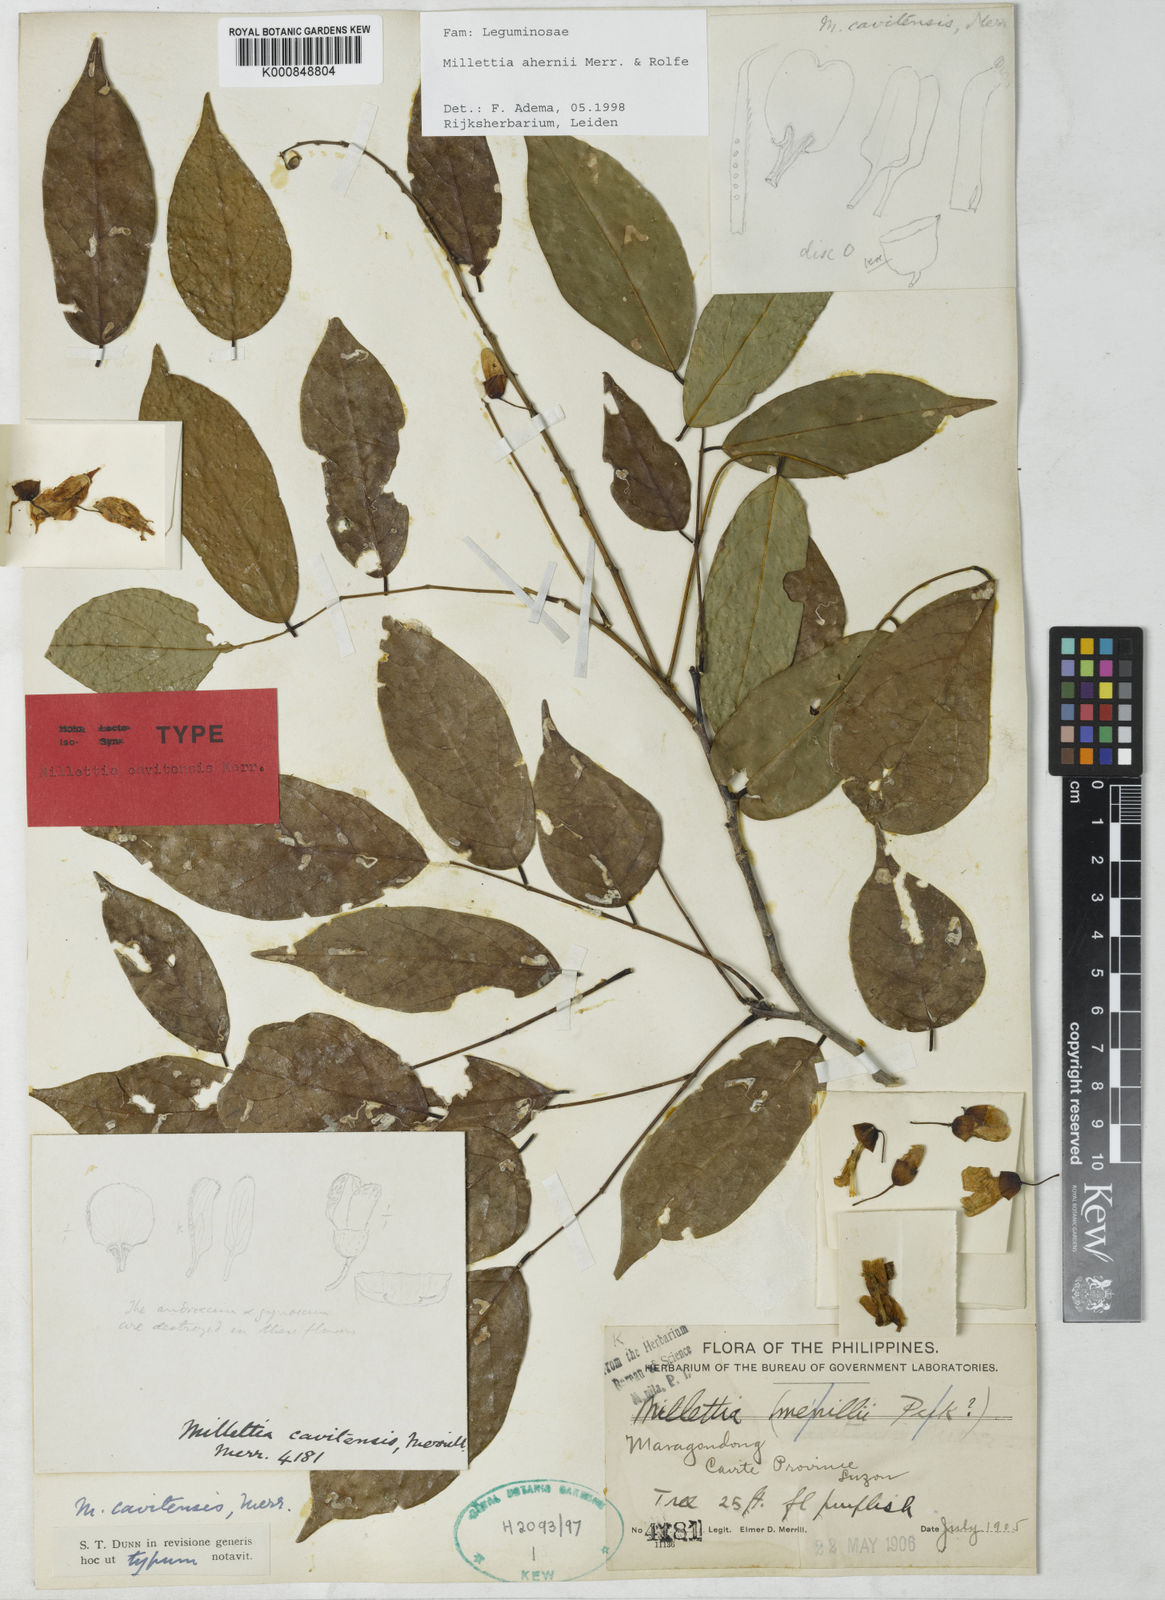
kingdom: Plantae
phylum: Tracheophyta
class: Magnoliopsida
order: Fabales
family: Fabaceae
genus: Millettia
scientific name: Millettia ahernii
